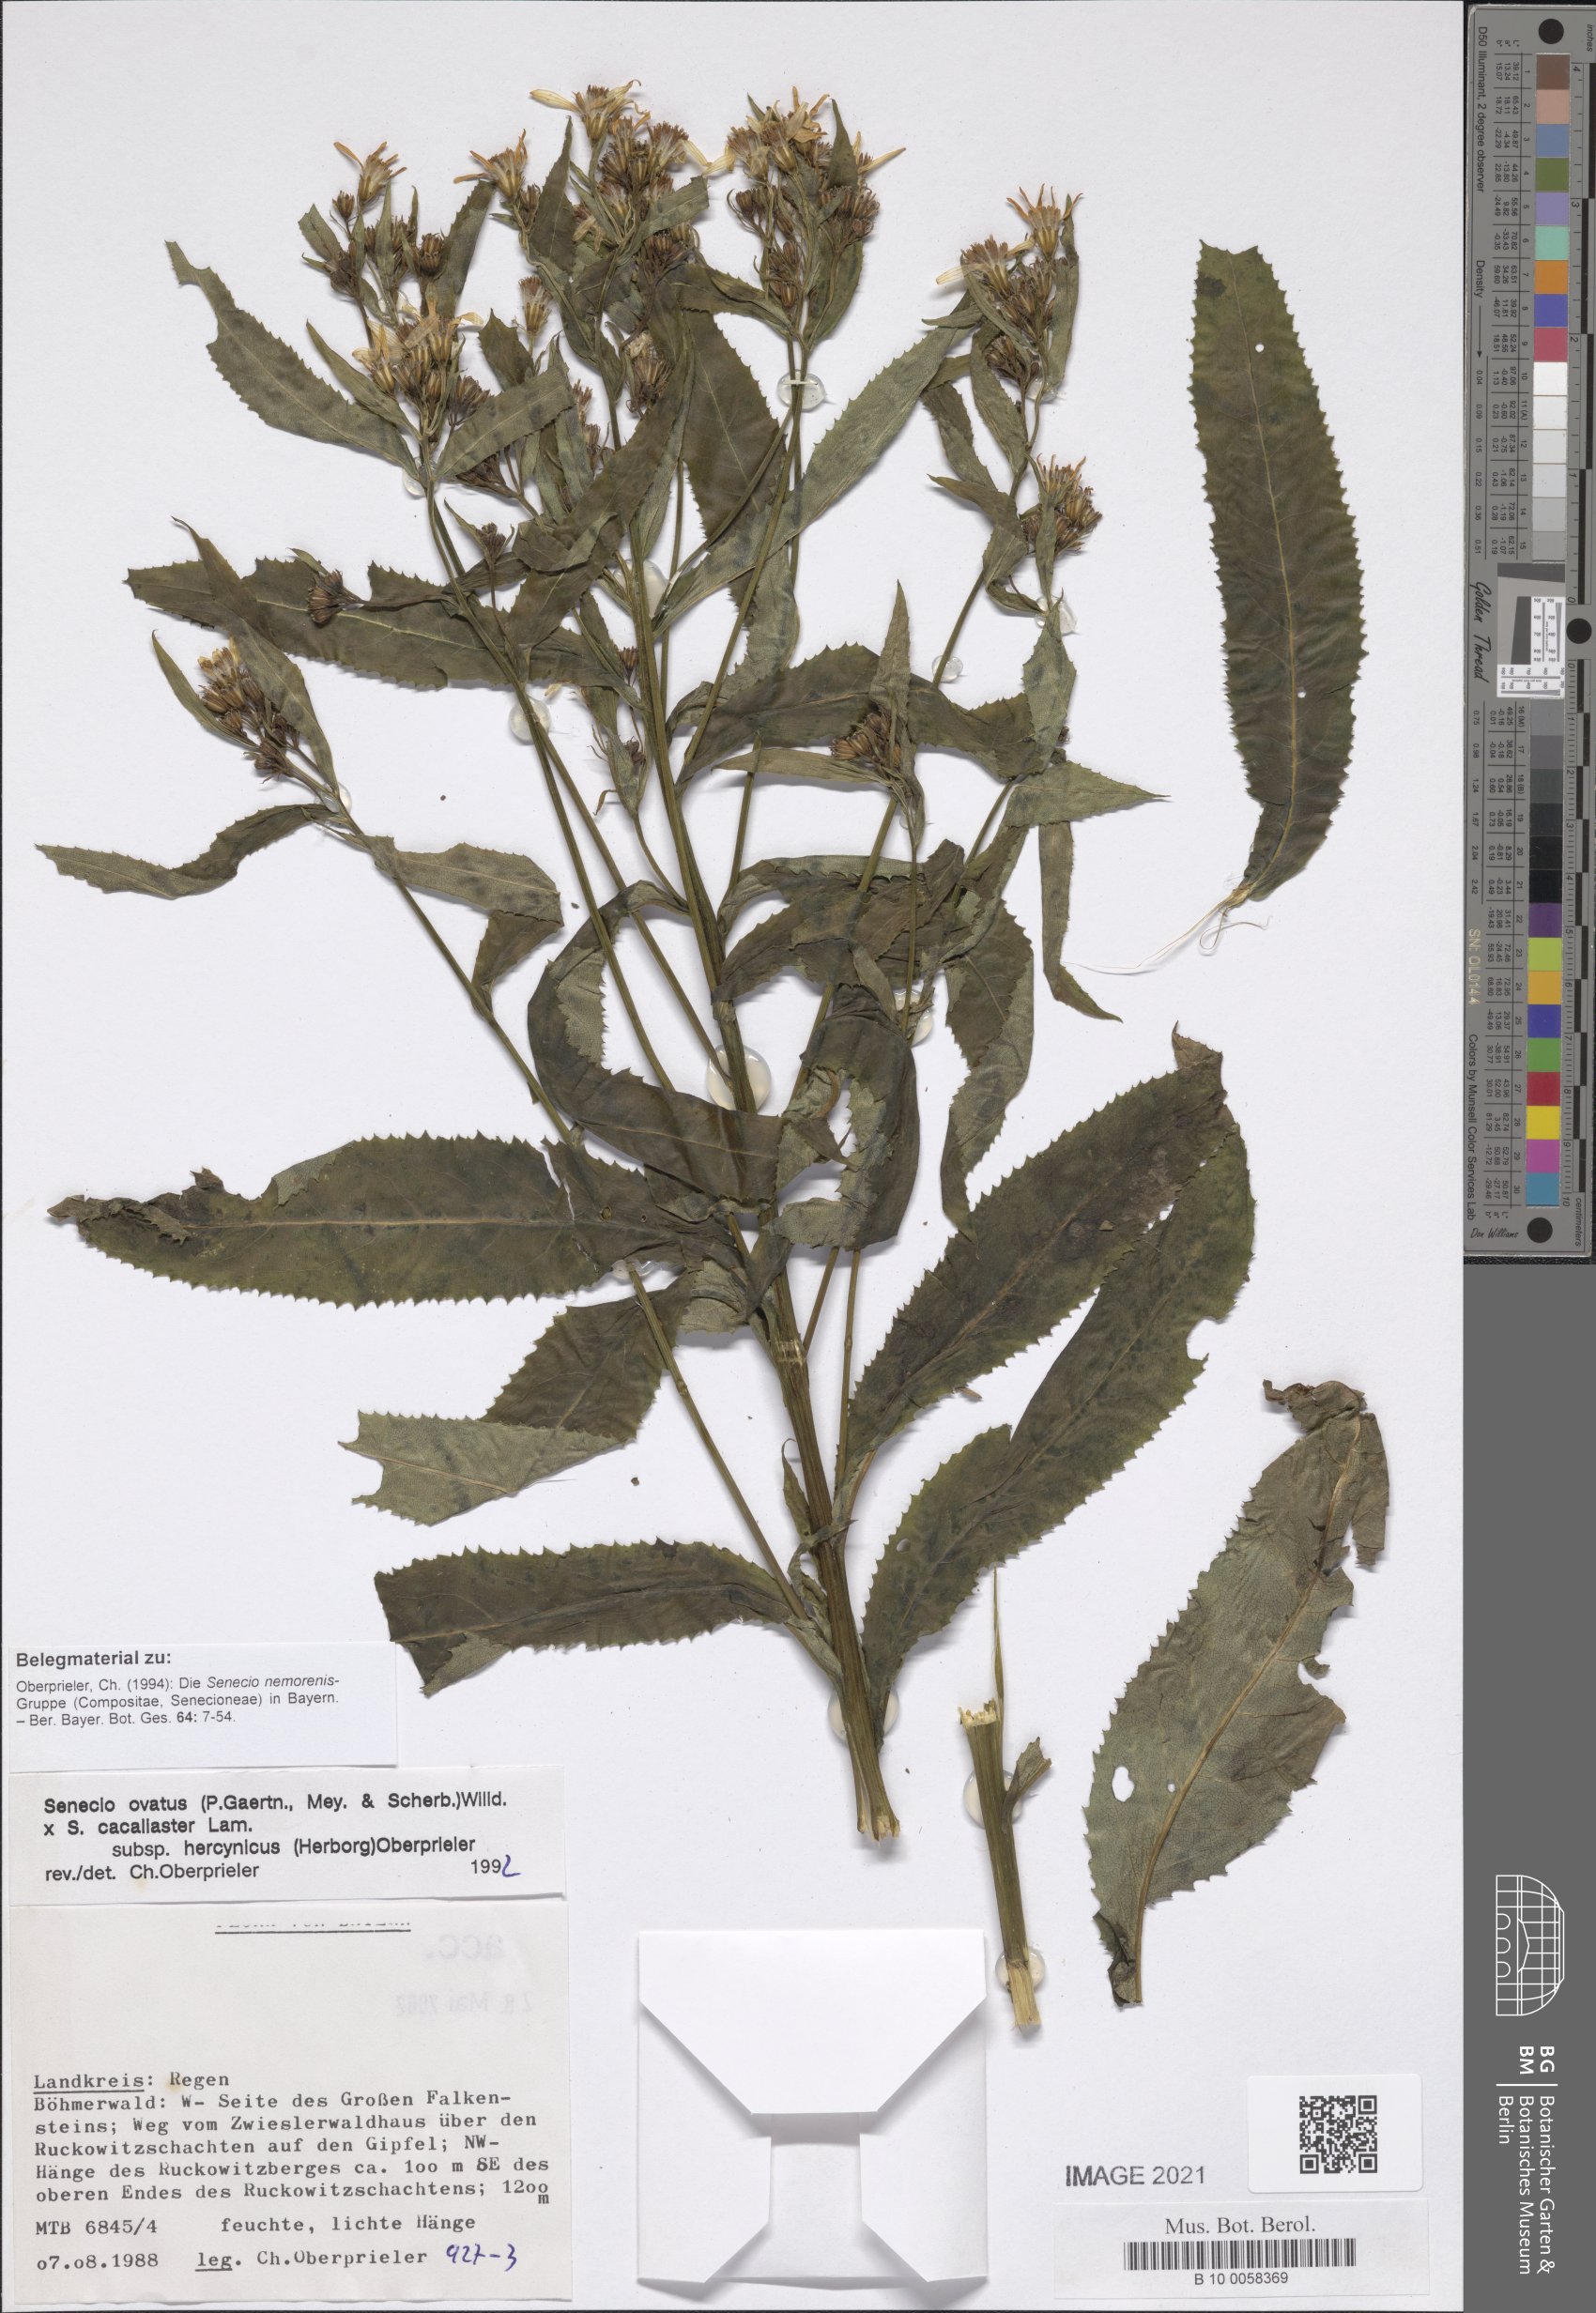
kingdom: Plantae
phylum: Tracheophyta
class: Magnoliopsida
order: Asterales
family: Asteraceae
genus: Senecio
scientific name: Senecio ovatus
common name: Wood ragwort
